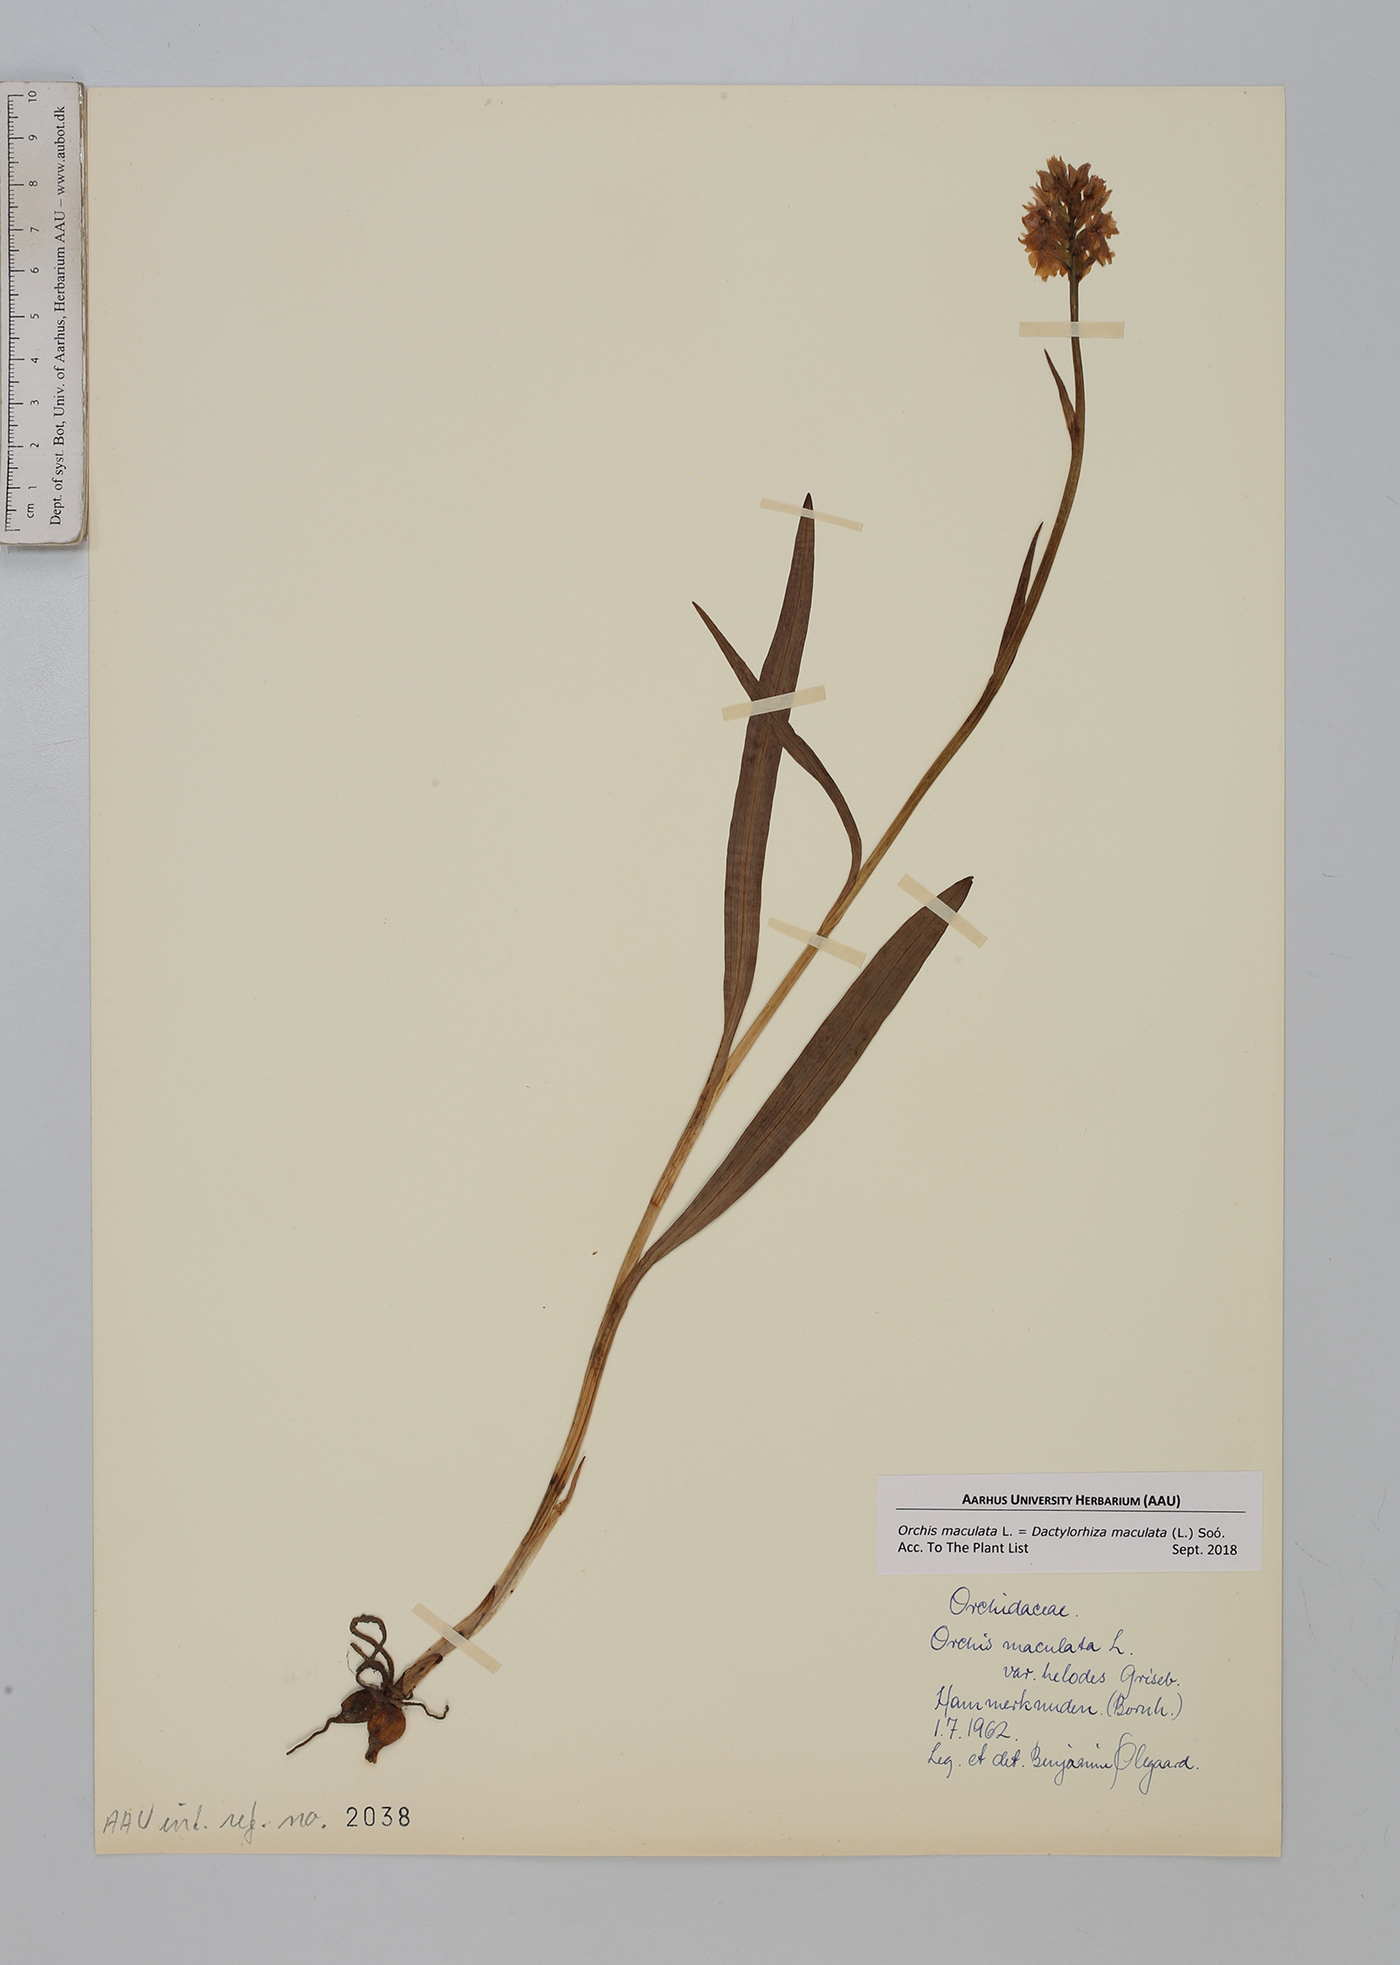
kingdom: Plantae
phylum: Tracheophyta
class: Liliopsida
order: Asparagales
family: Orchidaceae
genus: Dactylorhiza
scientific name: Dactylorhiza maculata
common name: Heath spotted-orchid
